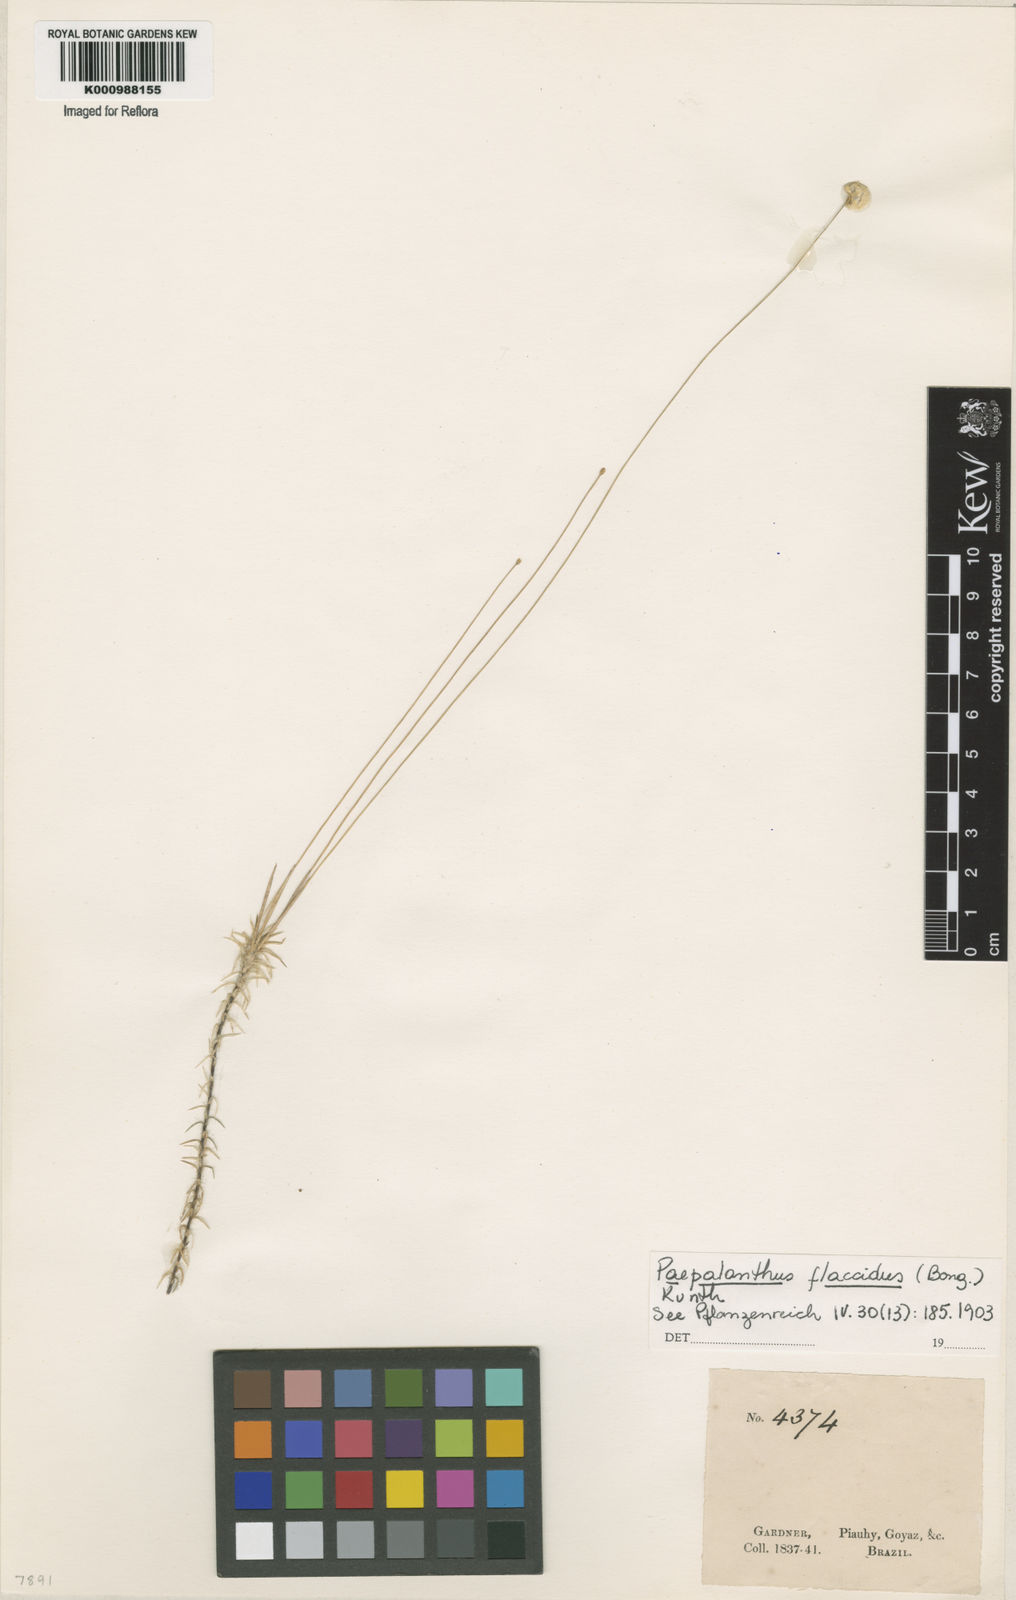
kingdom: Plantae
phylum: Tracheophyta
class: Liliopsida
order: Poales
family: Eriocaulaceae
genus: Paepalanthus
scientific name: Paepalanthus flaccidus
